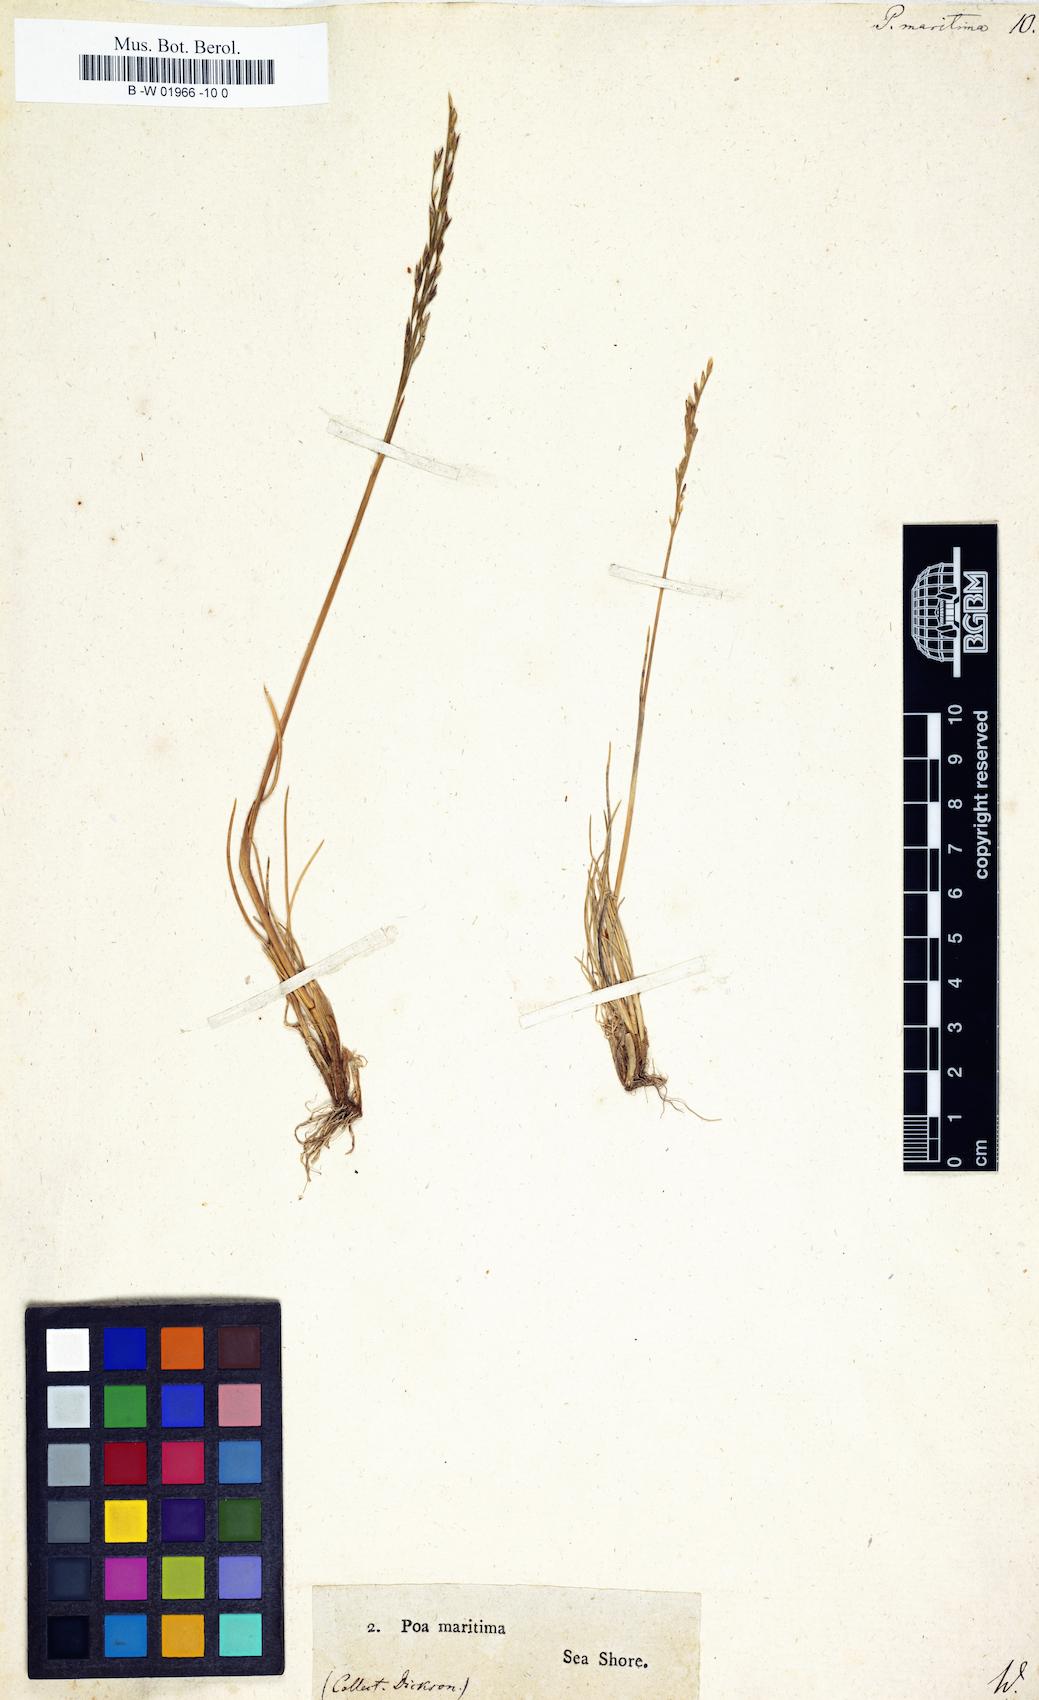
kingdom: Plantae
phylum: Tracheophyta
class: Liliopsida
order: Poales
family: Poaceae
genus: Poa
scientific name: Poa maritima
